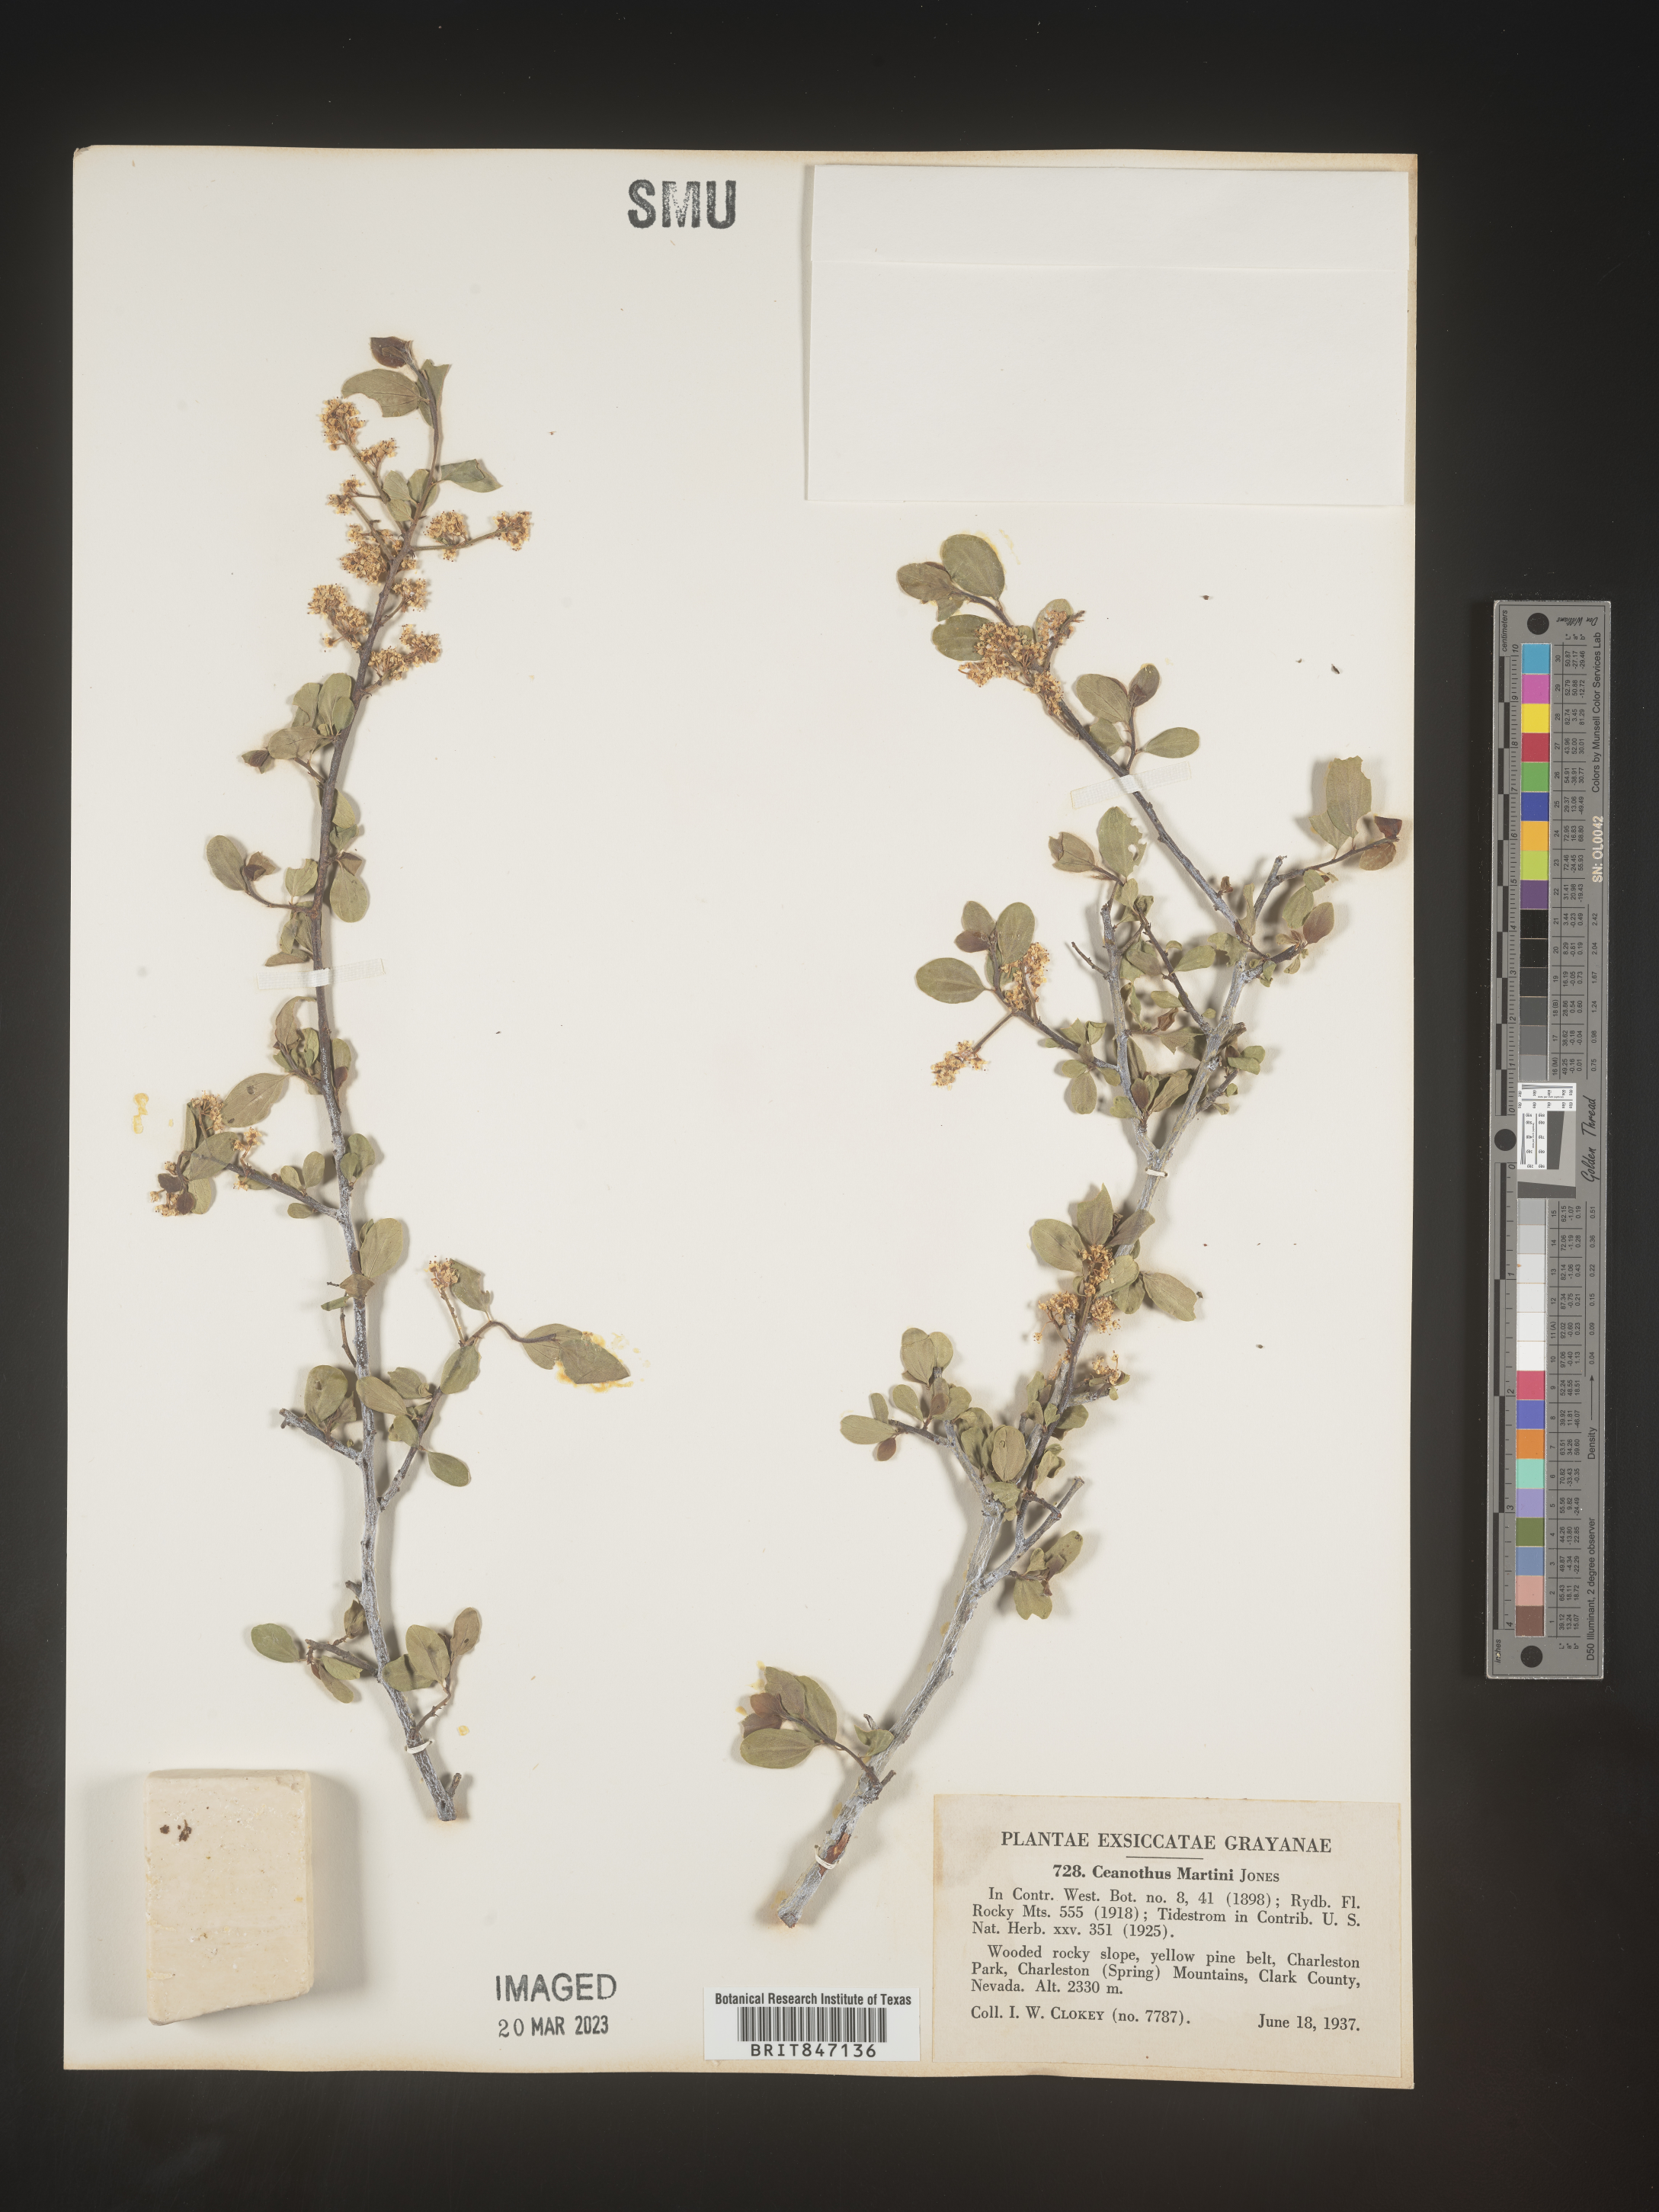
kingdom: Plantae
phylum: Tracheophyta
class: Magnoliopsida
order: Rosales
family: Rhamnaceae
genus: Ceanothus
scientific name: Ceanothus
